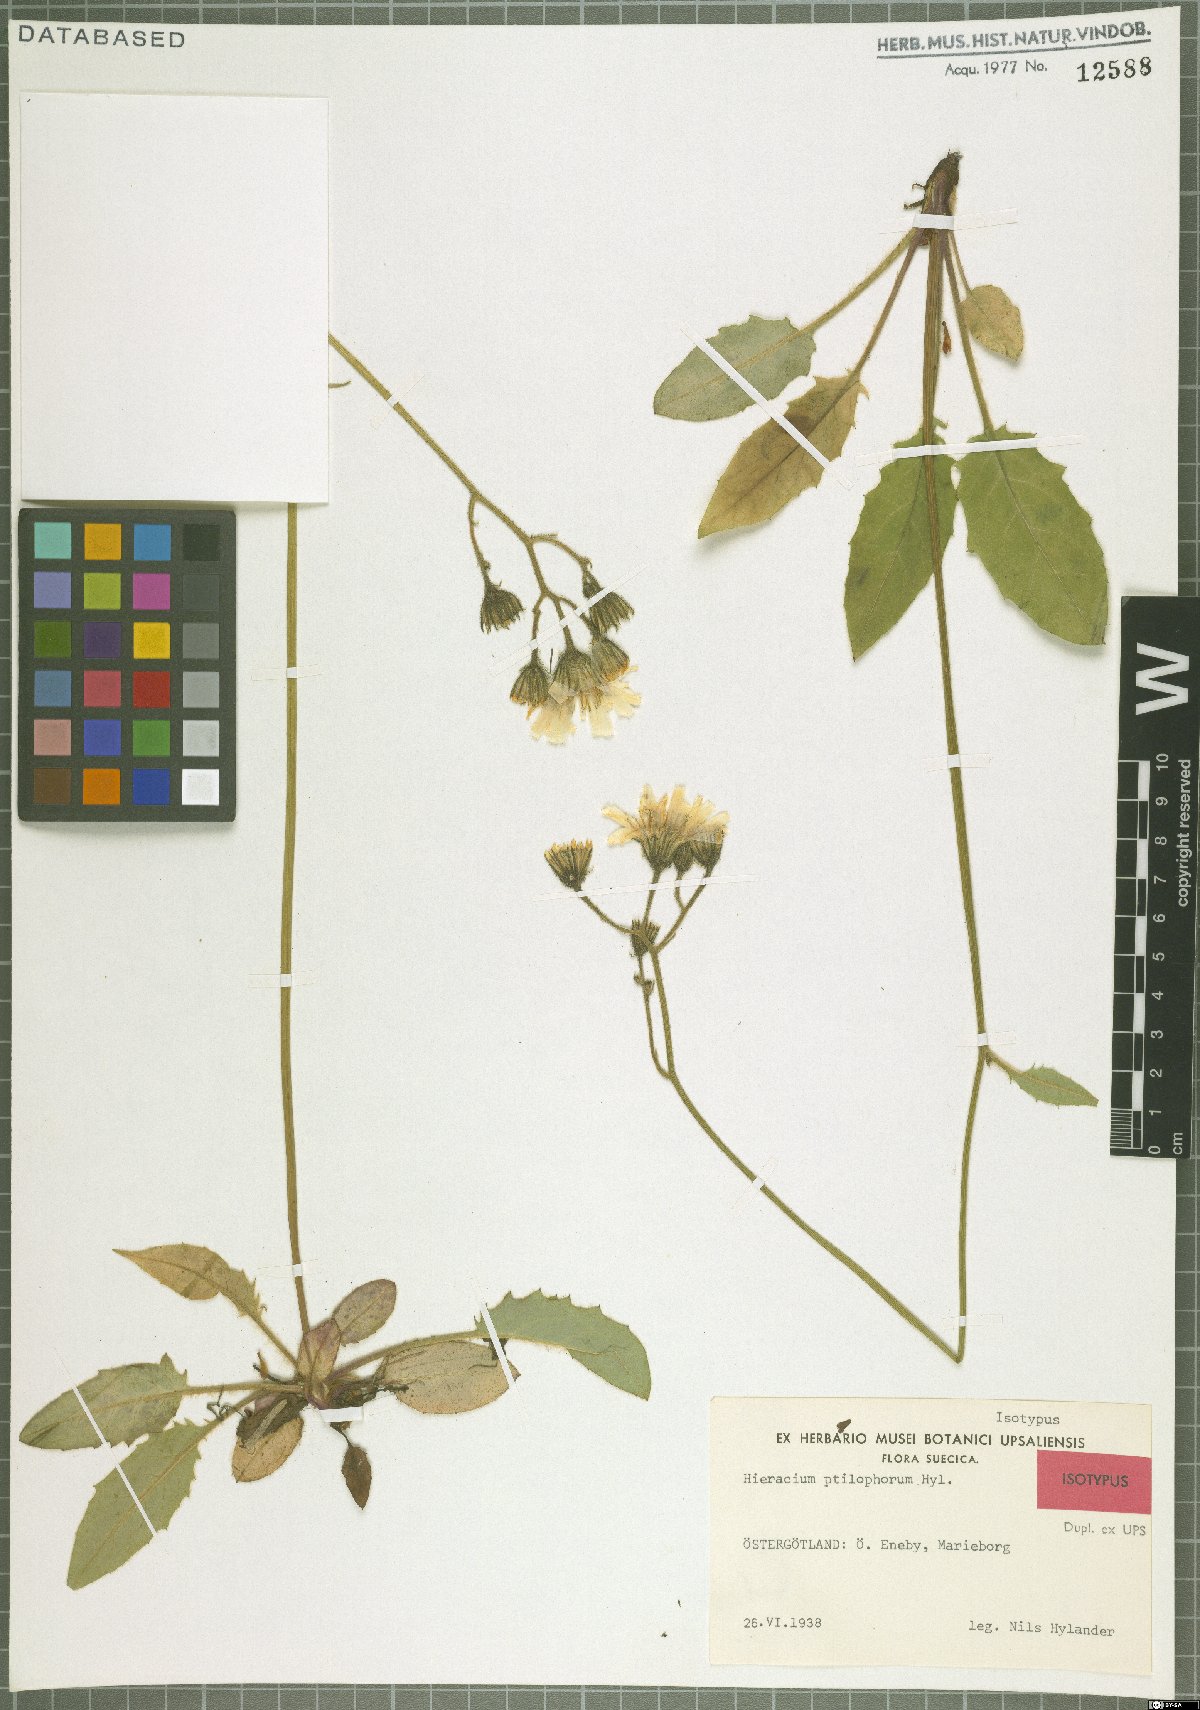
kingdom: Plantae
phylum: Tracheophyta
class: Magnoliopsida
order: Asterales
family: Asteraceae
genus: Hieracium
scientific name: Hieracium ptilophorum
